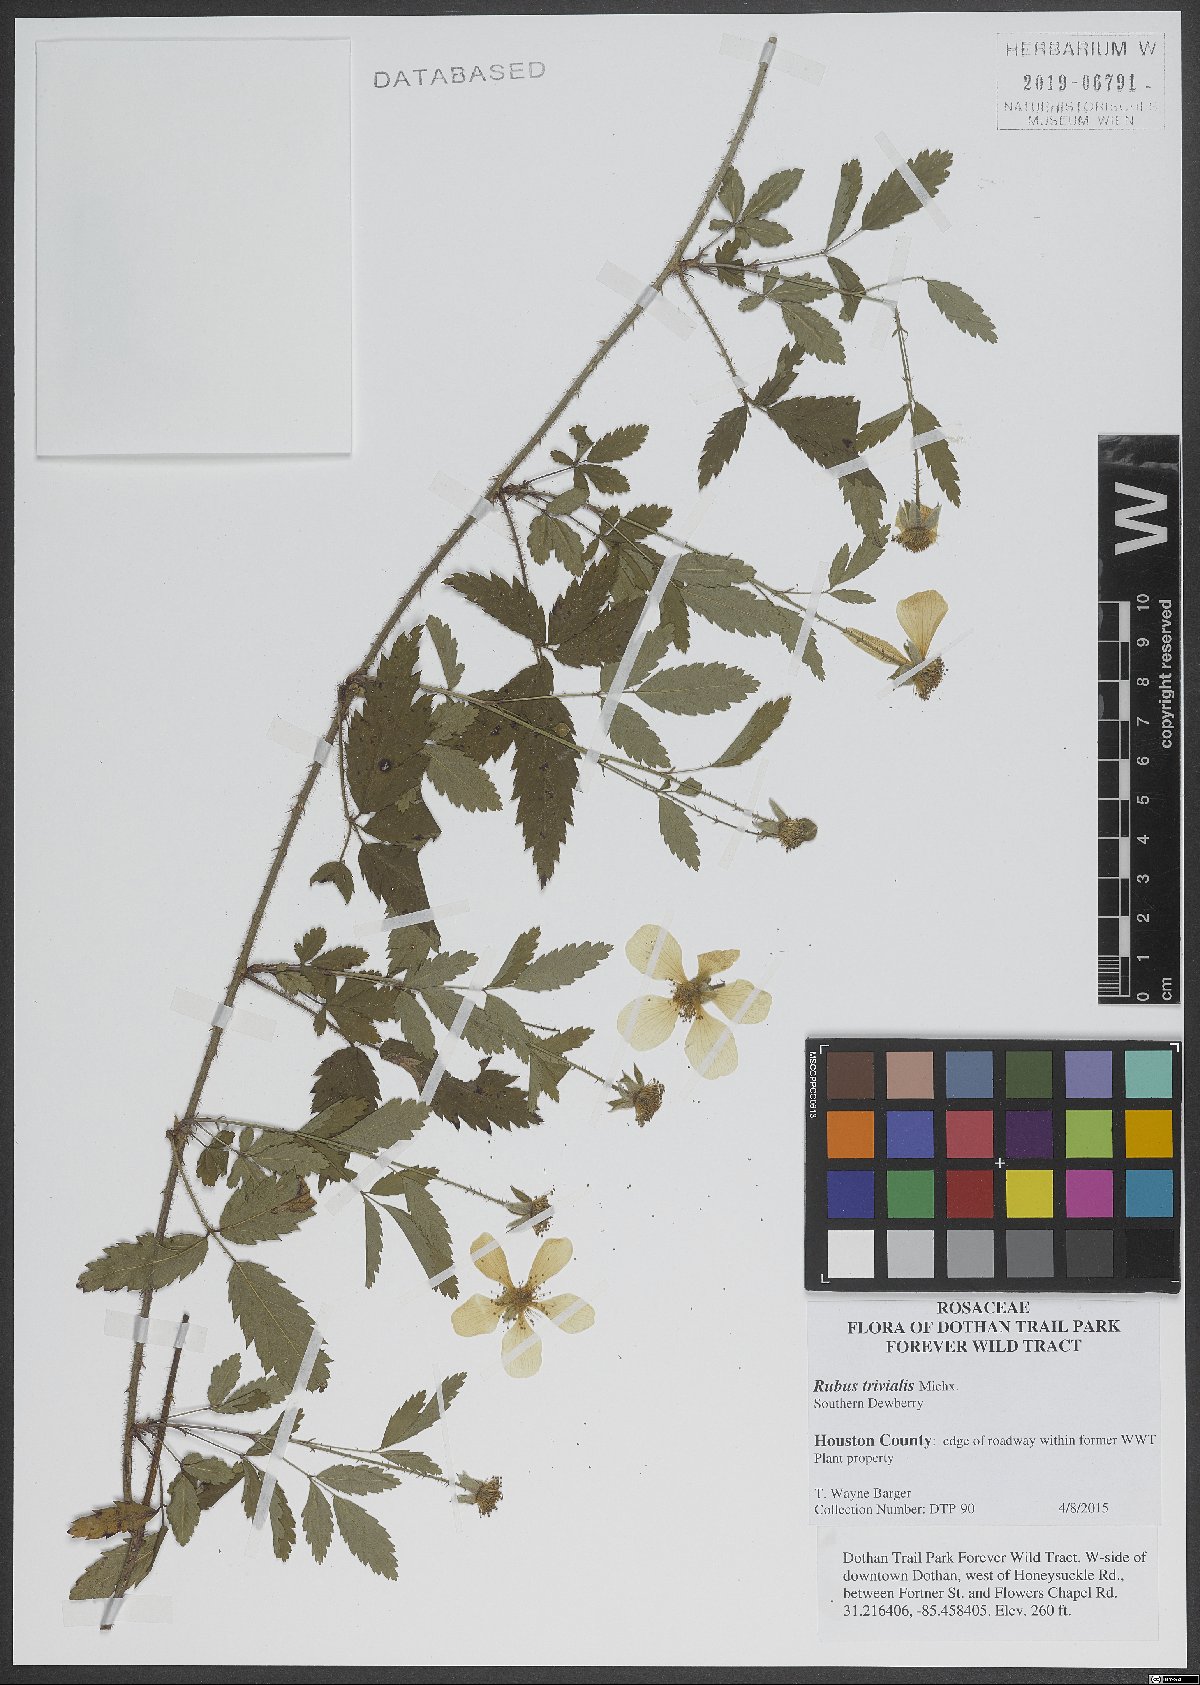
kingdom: Plantae
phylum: Tracheophyta
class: Magnoliopsida
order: Rosales
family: Rosaceae
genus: Rubus
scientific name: Rubus trivialis
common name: Southern dewberry
